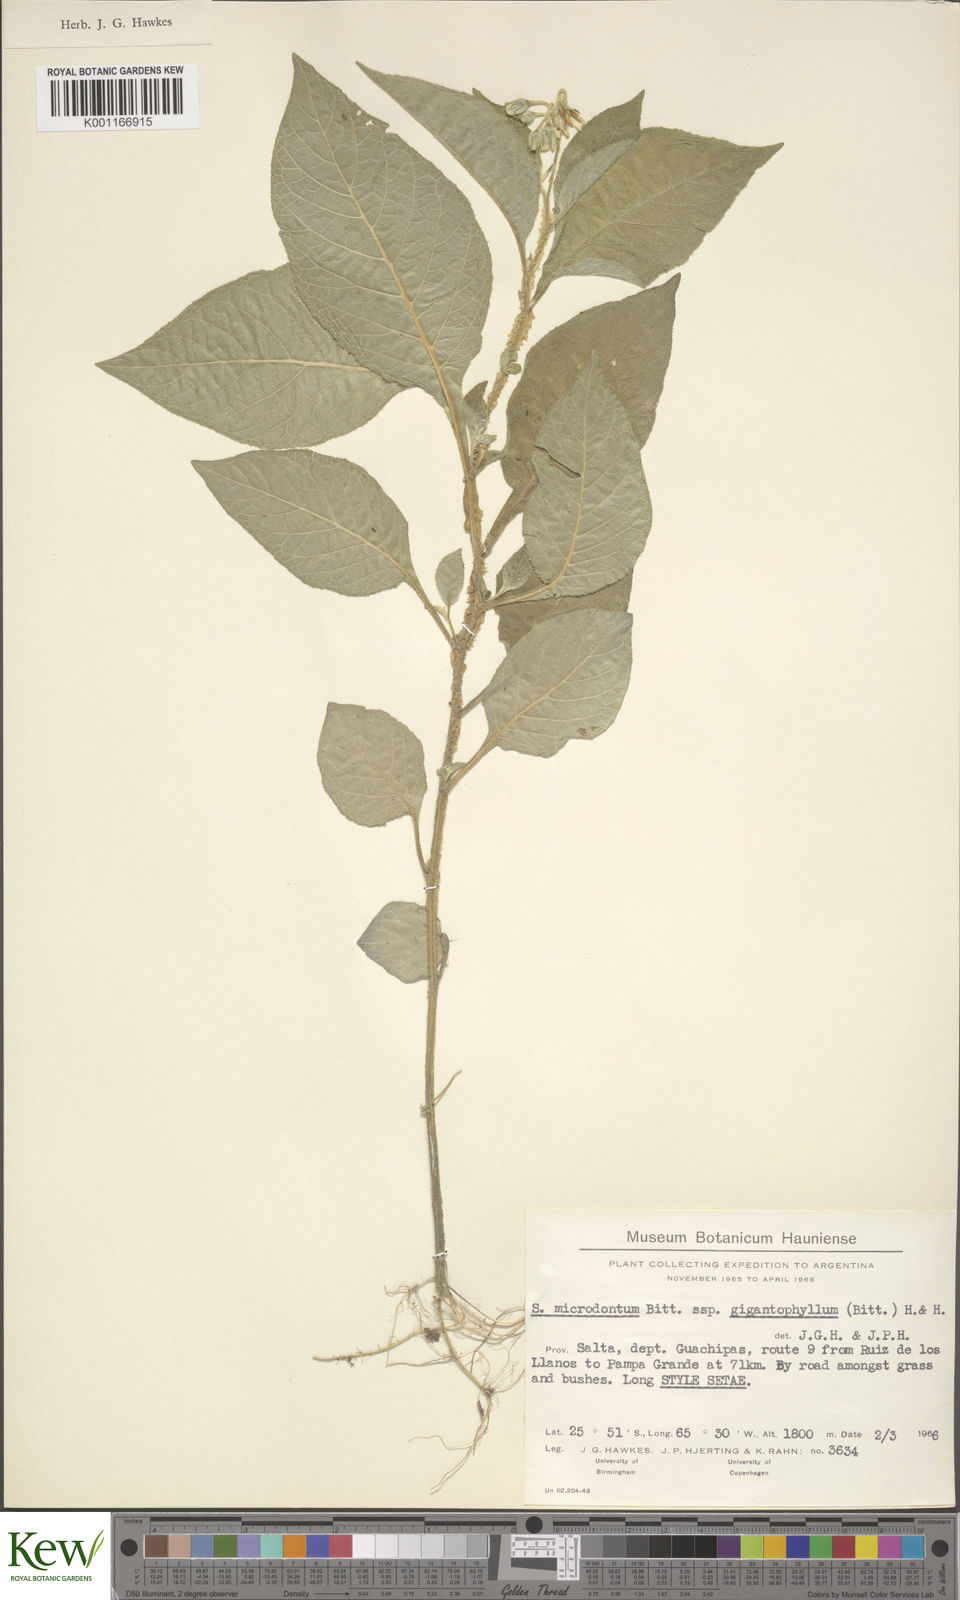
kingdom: Plantae
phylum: Tracheophyta
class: Magnoliopsida
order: Solanales
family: Solanaceae
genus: Solanum
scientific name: Solanum microdontum
